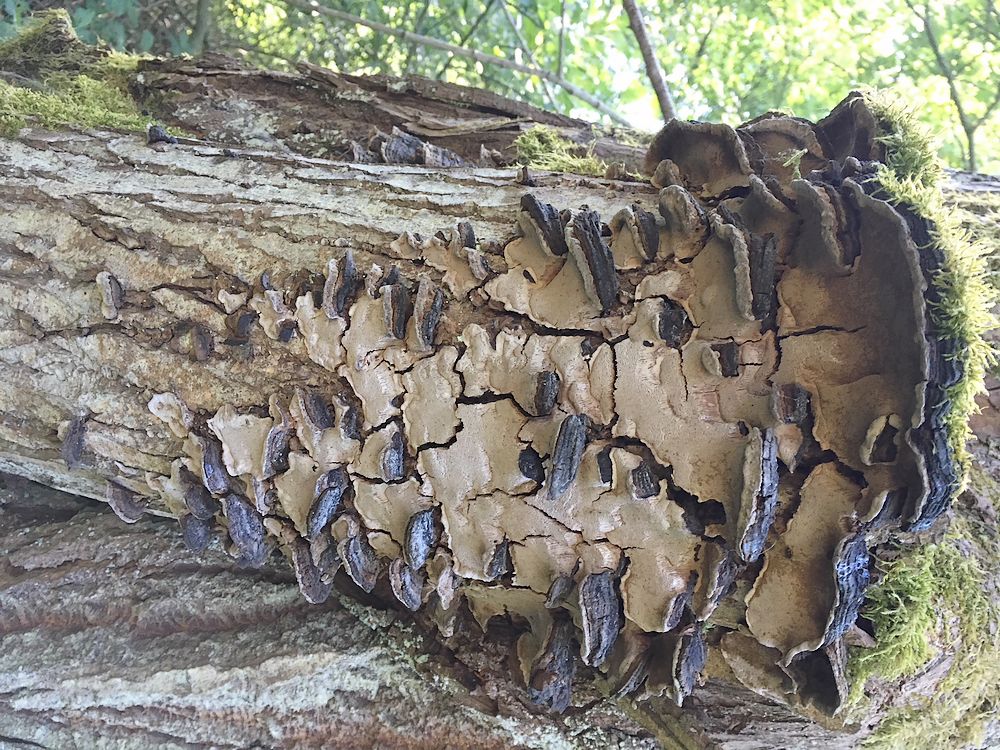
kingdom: Fungi
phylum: Basidiomycota
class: Agaricomycetes
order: Hymenochaetales
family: Hymenochaetaceae
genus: Phellinopsis
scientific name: Phellinopsis conchata
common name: pile-ildporesvamp
